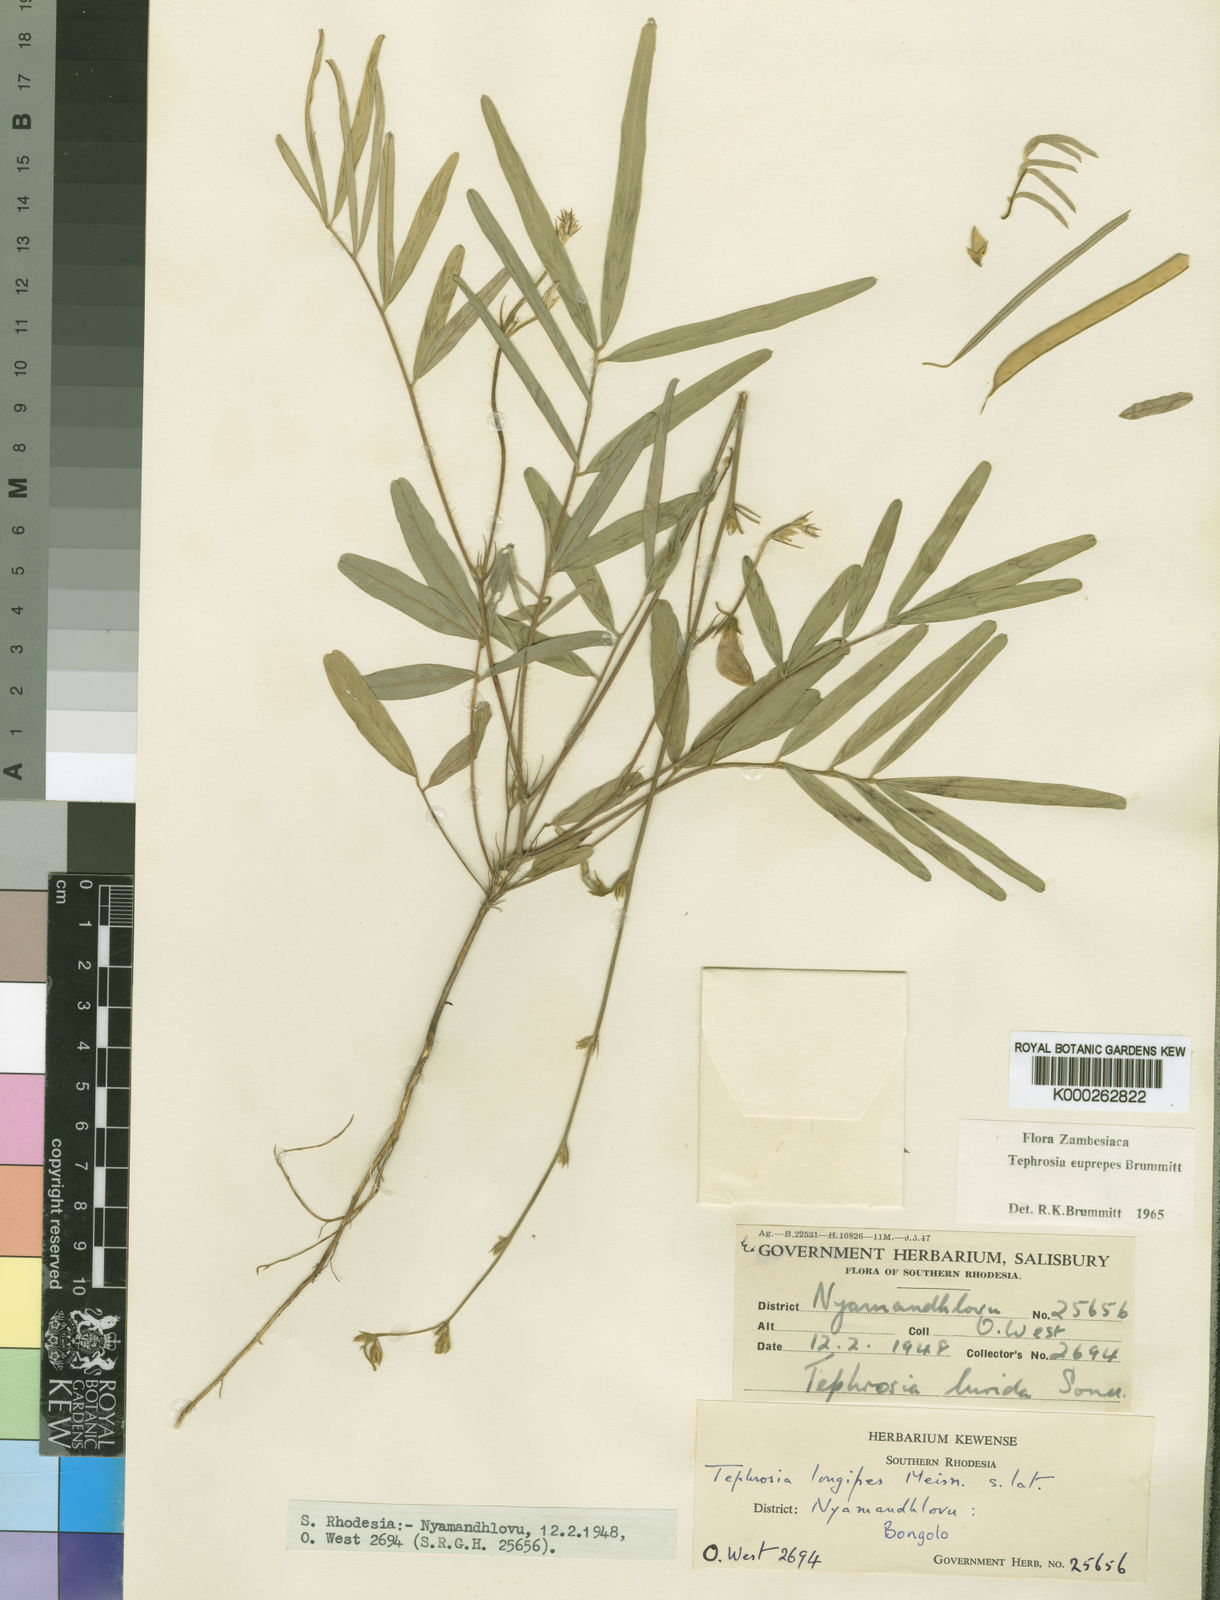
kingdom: Plantae
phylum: Tracheophyta
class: Magnoliopsida
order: Fabales
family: Fabaceae
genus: Tephrosia
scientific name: Tephrosia euprepes
